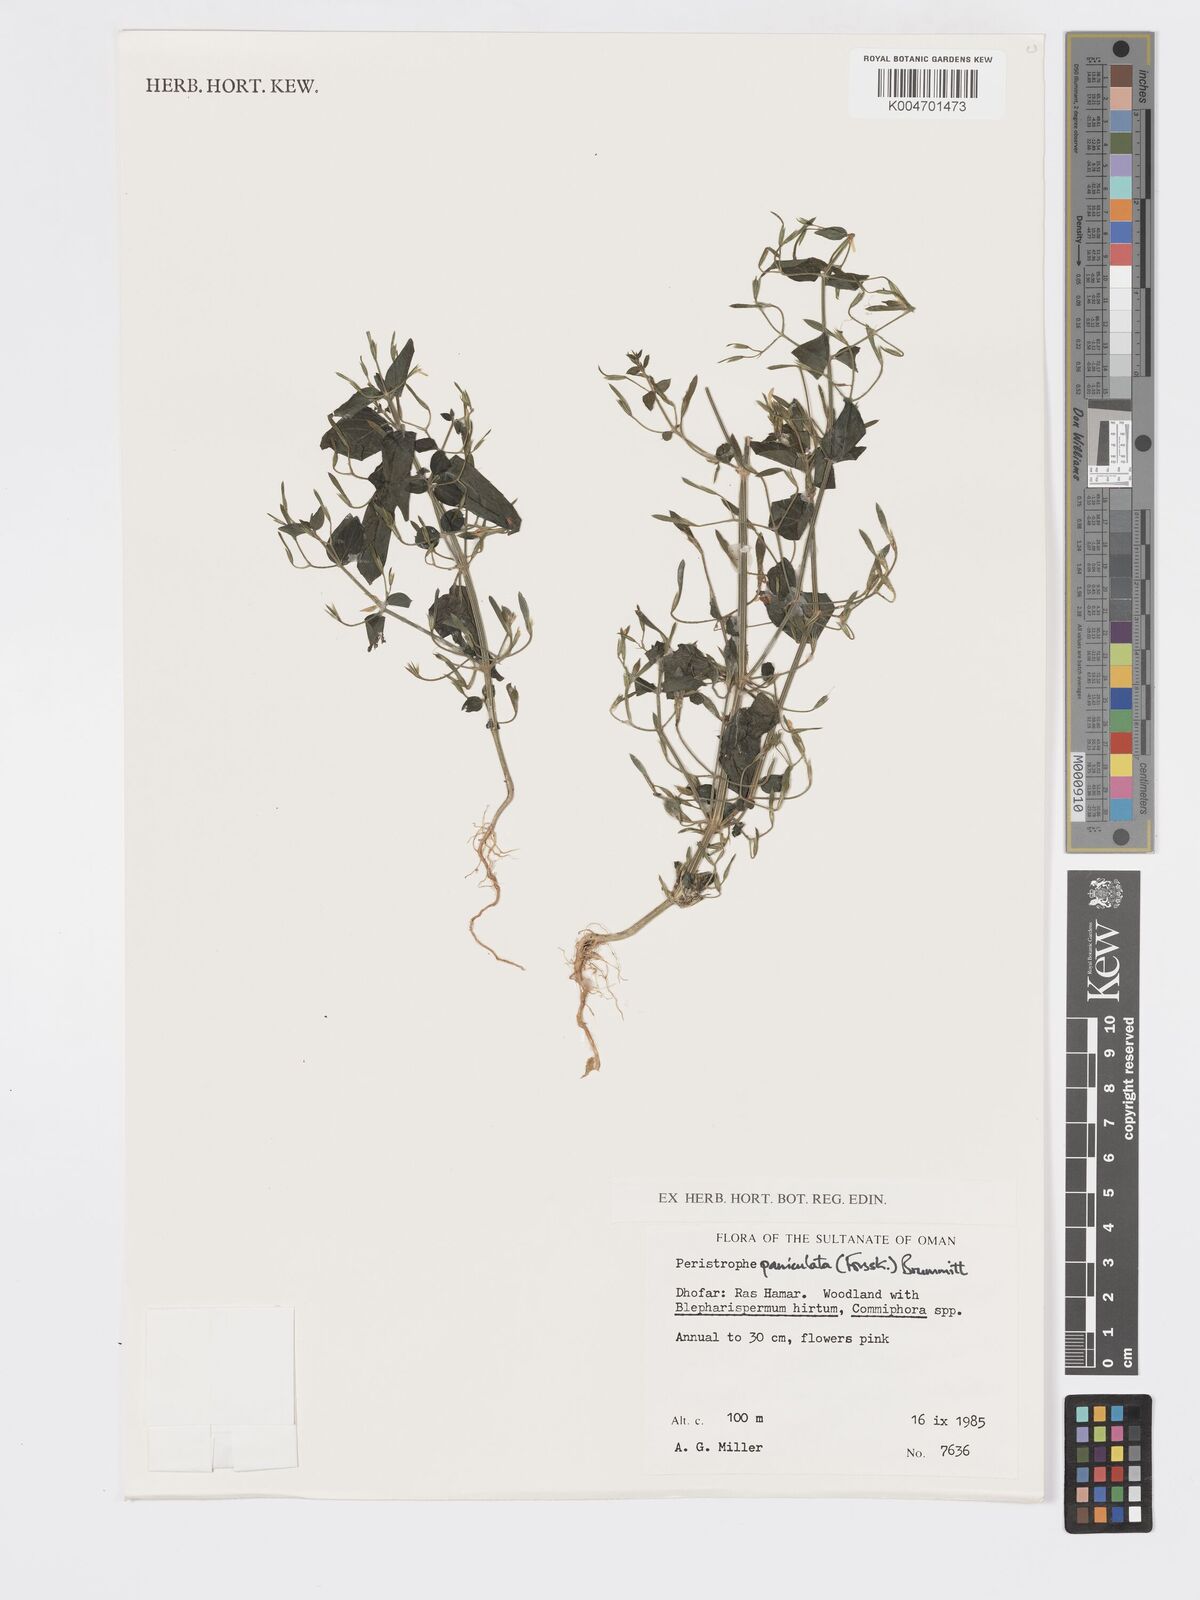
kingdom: Plantae
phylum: Tracheophyta
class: Magnoliopsida
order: Lamiales
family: Acanthaceae
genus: Dicliptera
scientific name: Dicliptera paniculata
